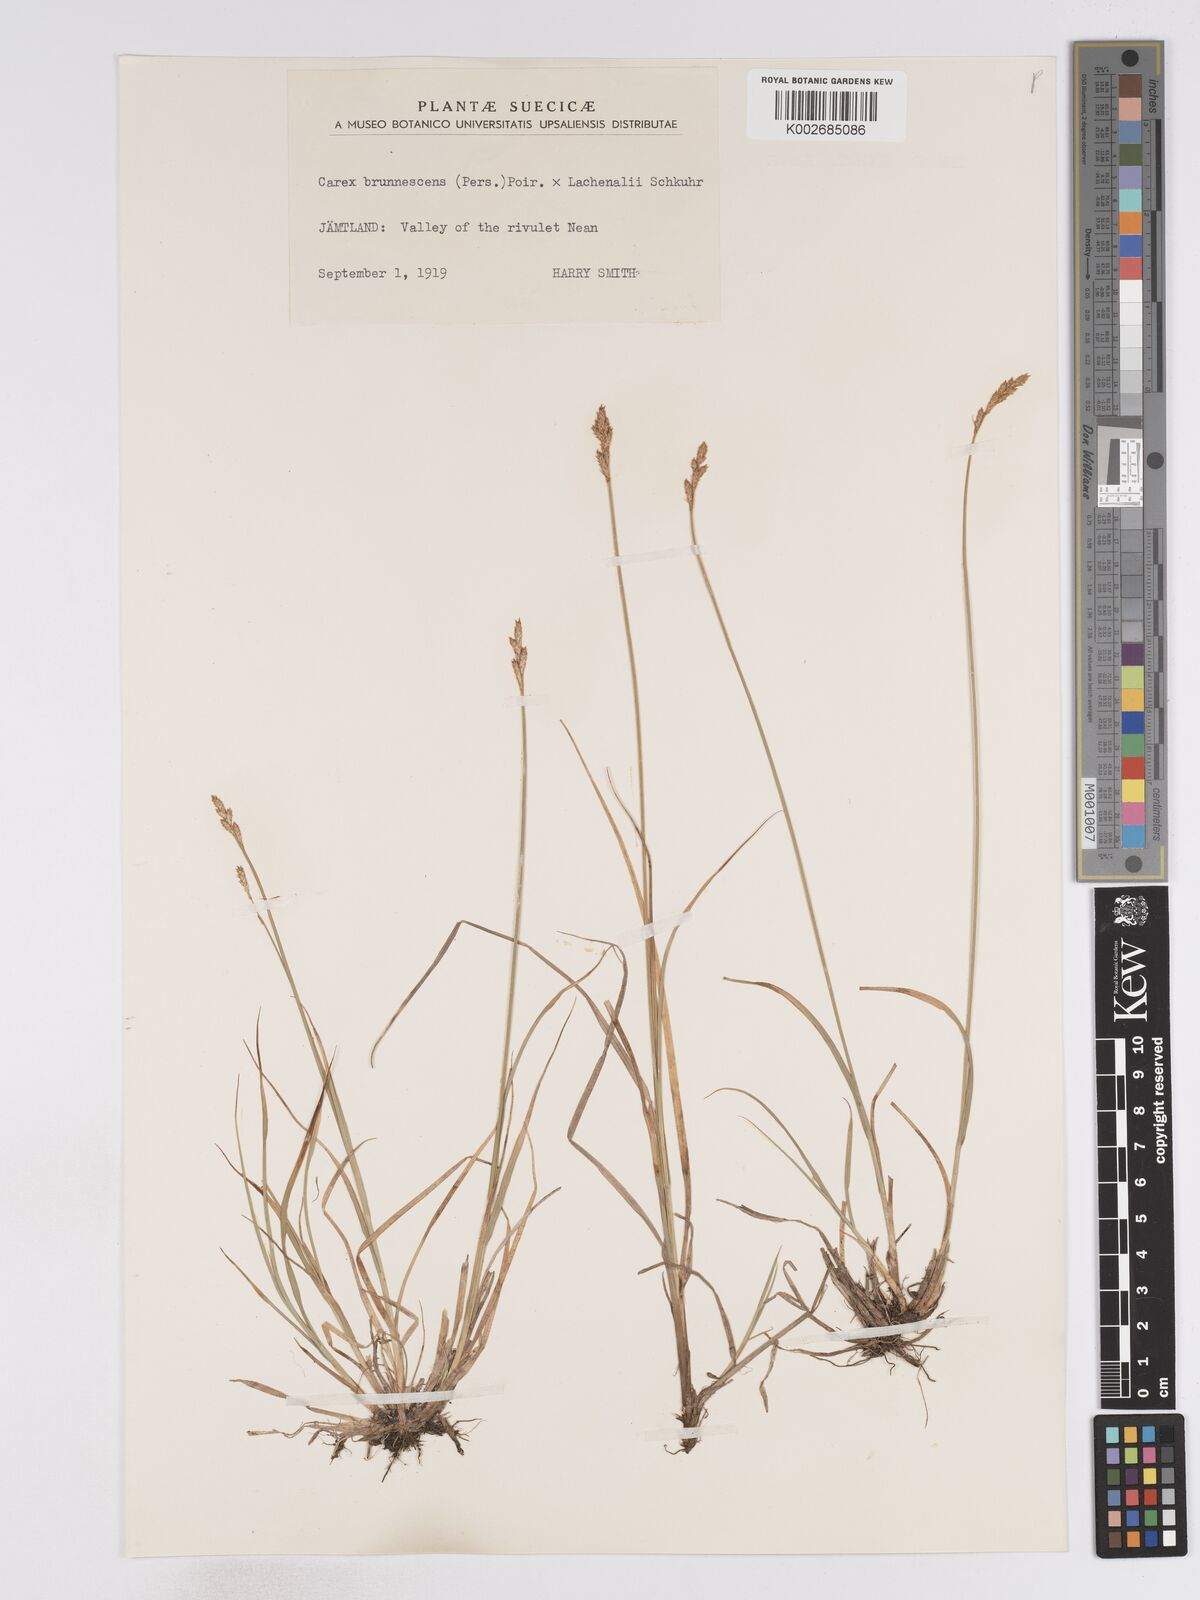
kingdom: Plantae
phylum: Tracheophyta
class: Liliopsida
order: Poales
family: Cyperaceae
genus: Carex
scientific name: Carex brunnescens
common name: Brown sedge
